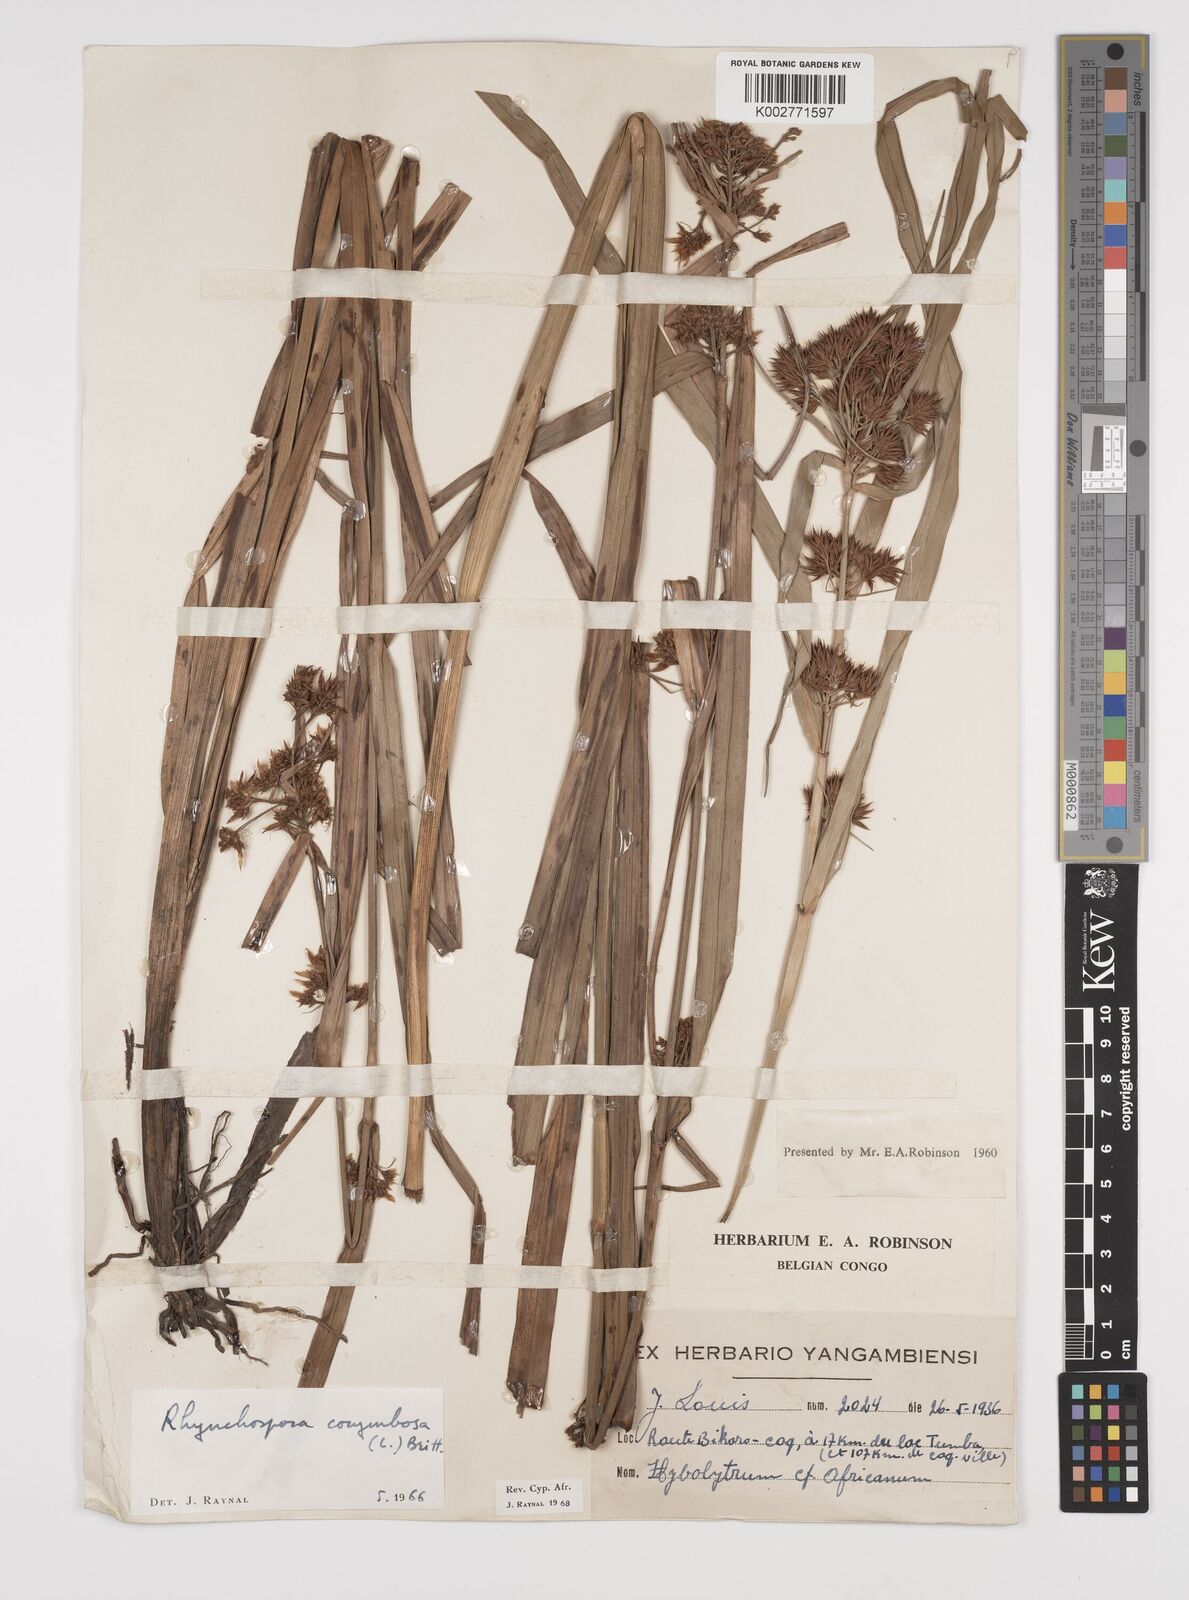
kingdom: Plantae
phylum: Tracheophyta
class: Liliopsida
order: Poales
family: Cyperaceae
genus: Rhynchospora
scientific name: Rhynchospora corymbosa
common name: Golden beak sedge
